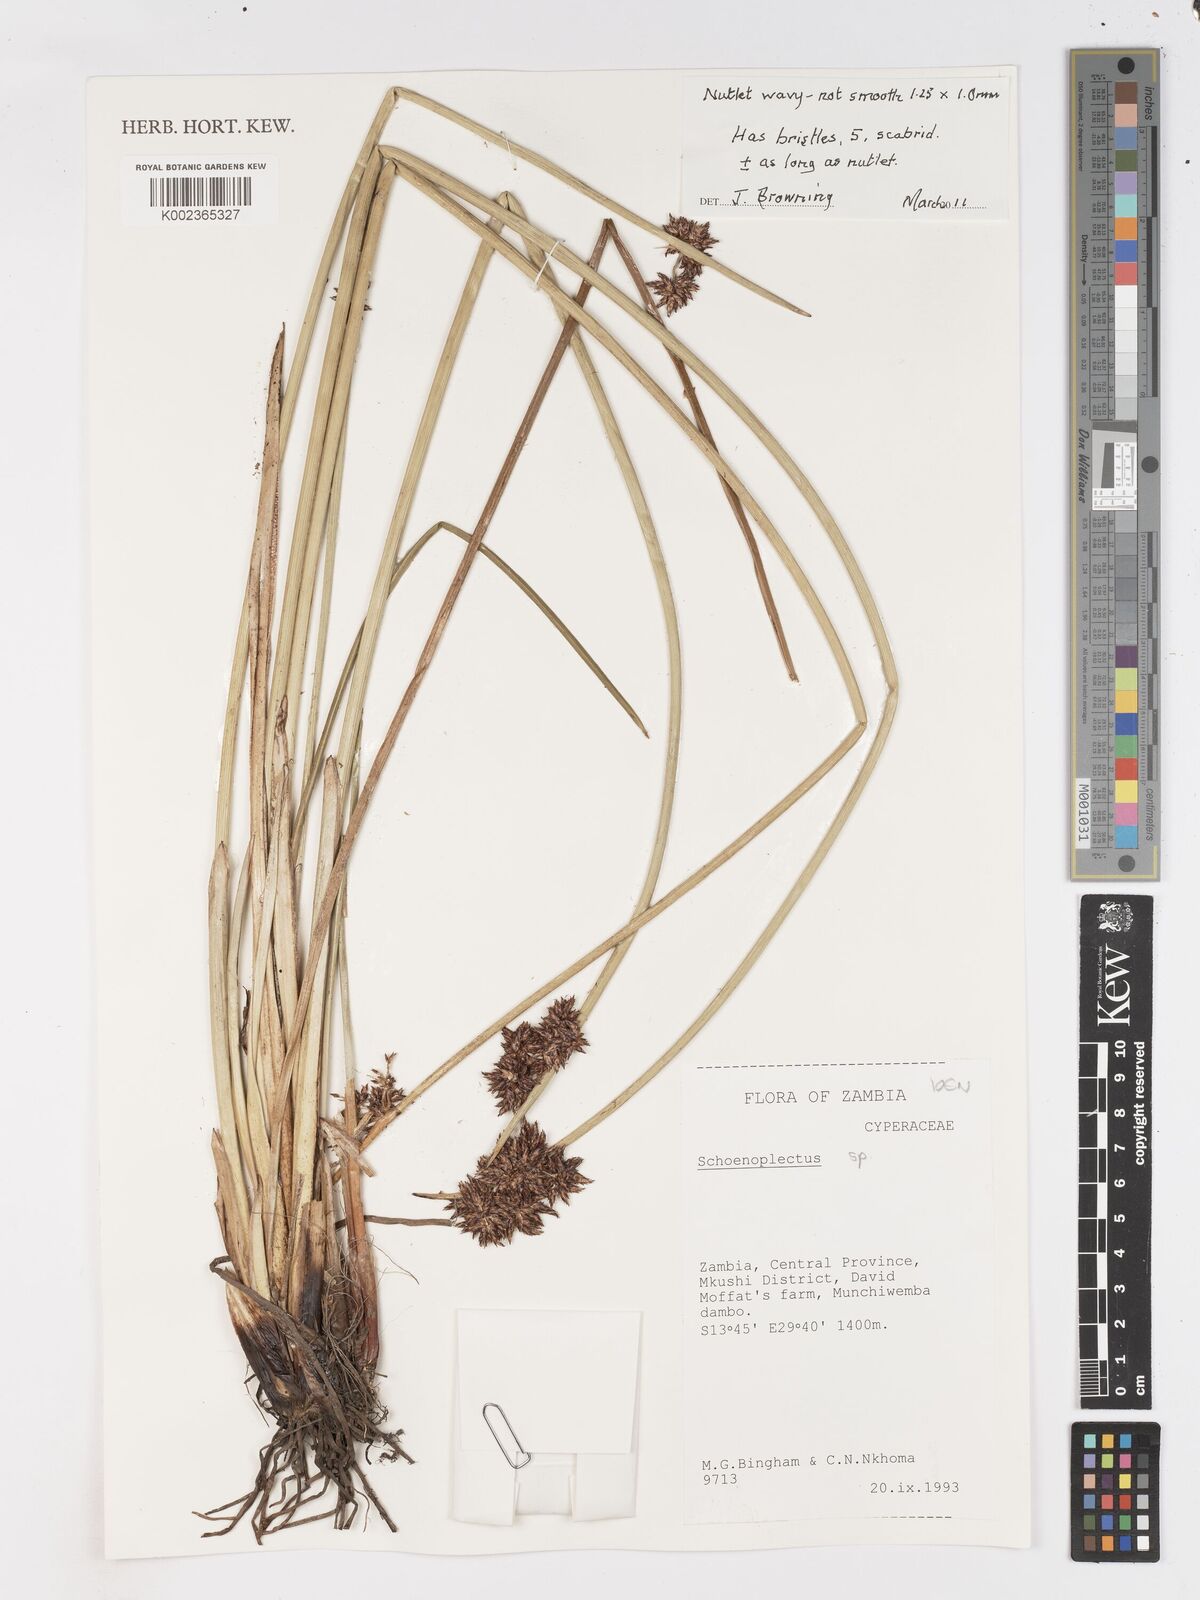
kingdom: Plantae
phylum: Tracheophyta
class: Liliopsida
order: Poales
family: Cyperaceae
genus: Schoenoplectus
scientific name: Schoenoplectus
